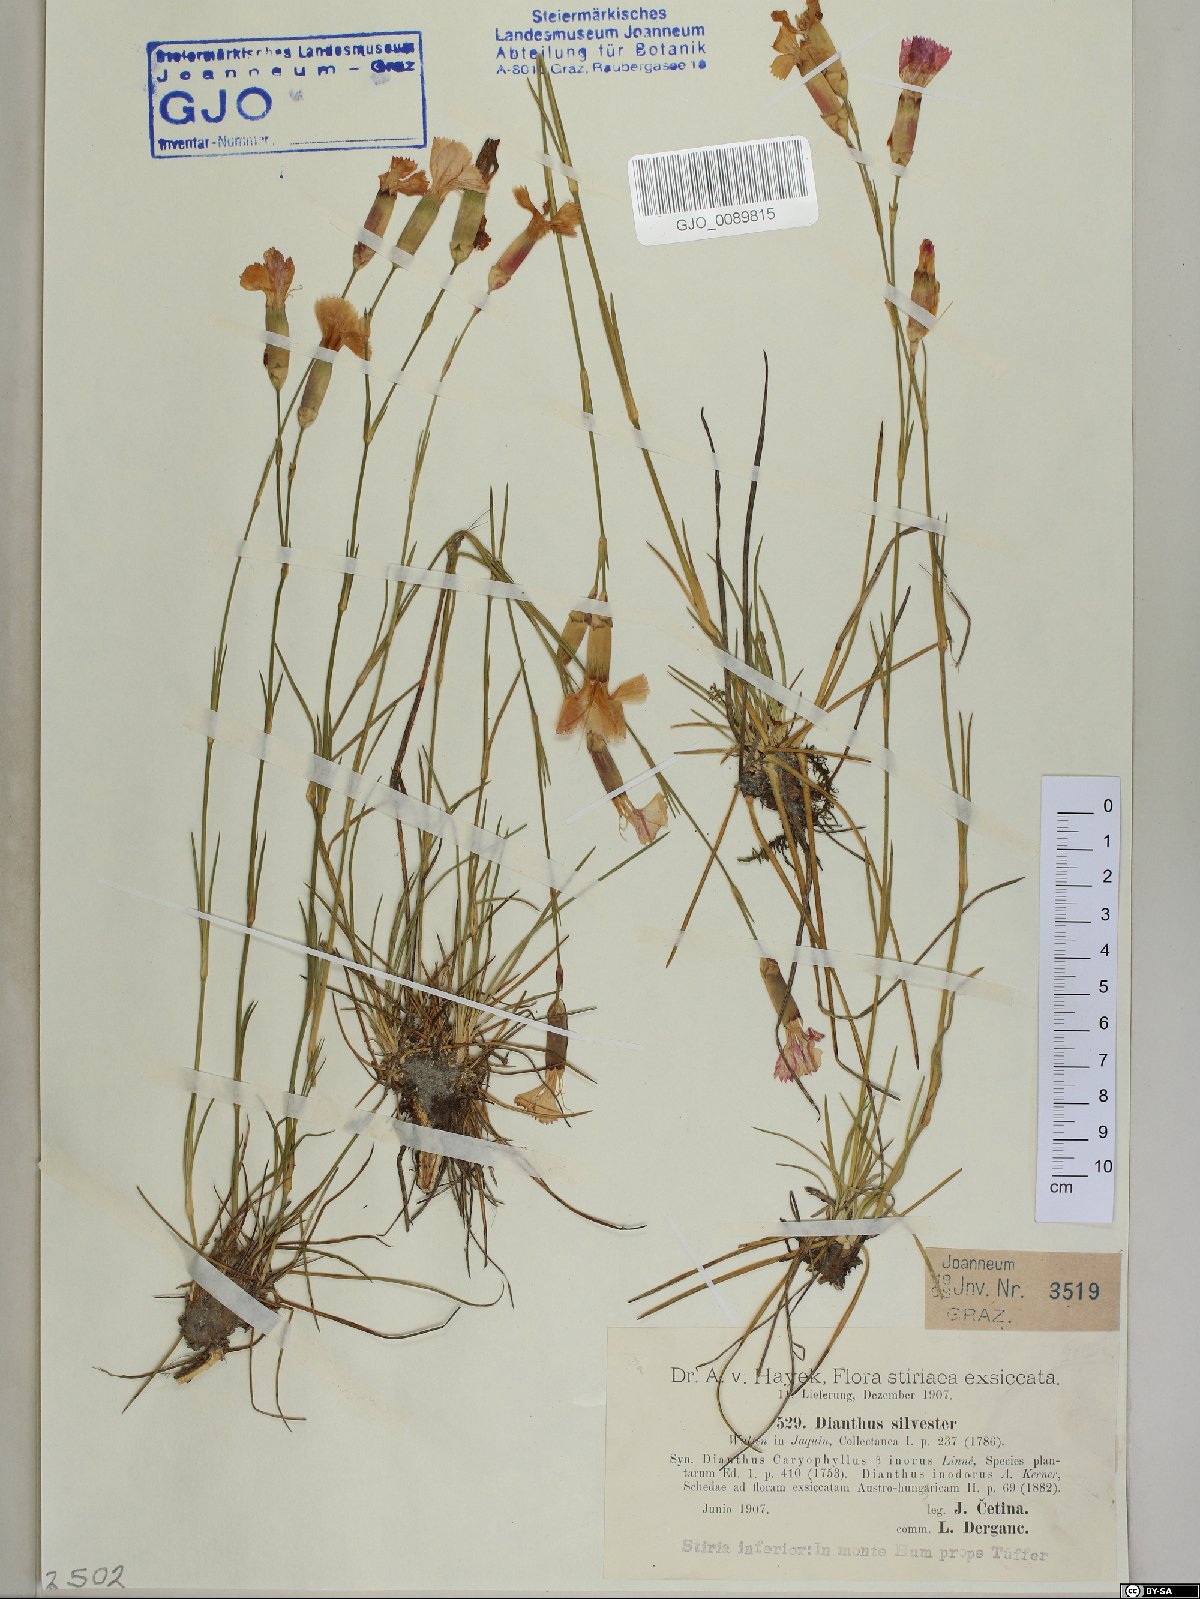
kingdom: Plantae
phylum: Tracheophyta
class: Magnoliopsida
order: Caryophyllales
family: Caryophyllaceae
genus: Dianthus
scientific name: Dianthus sylvestris
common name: Wood pink
